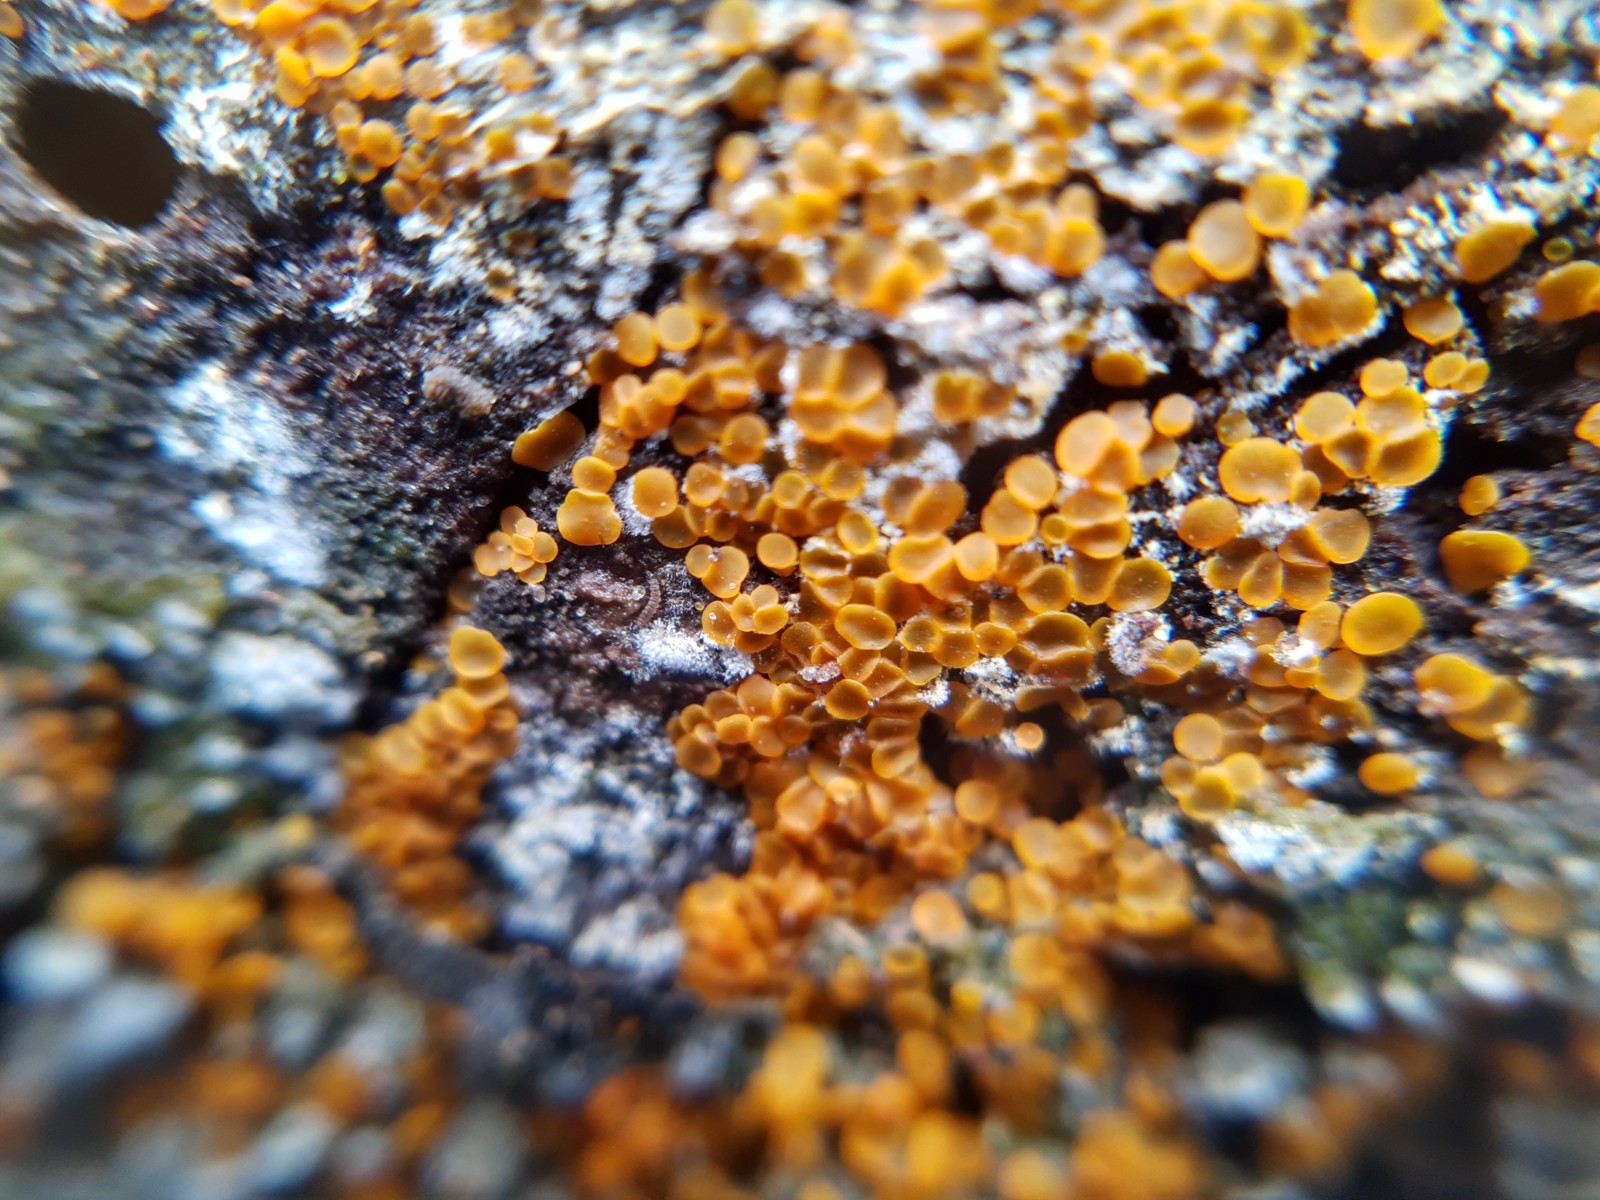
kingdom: Fungi
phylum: Ascomycota
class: Orbiliomycetes
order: Orbiliales
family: Orbiliaceae
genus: Orbilia
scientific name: Orbilia xanthostigma
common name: krumsporet voksskive
